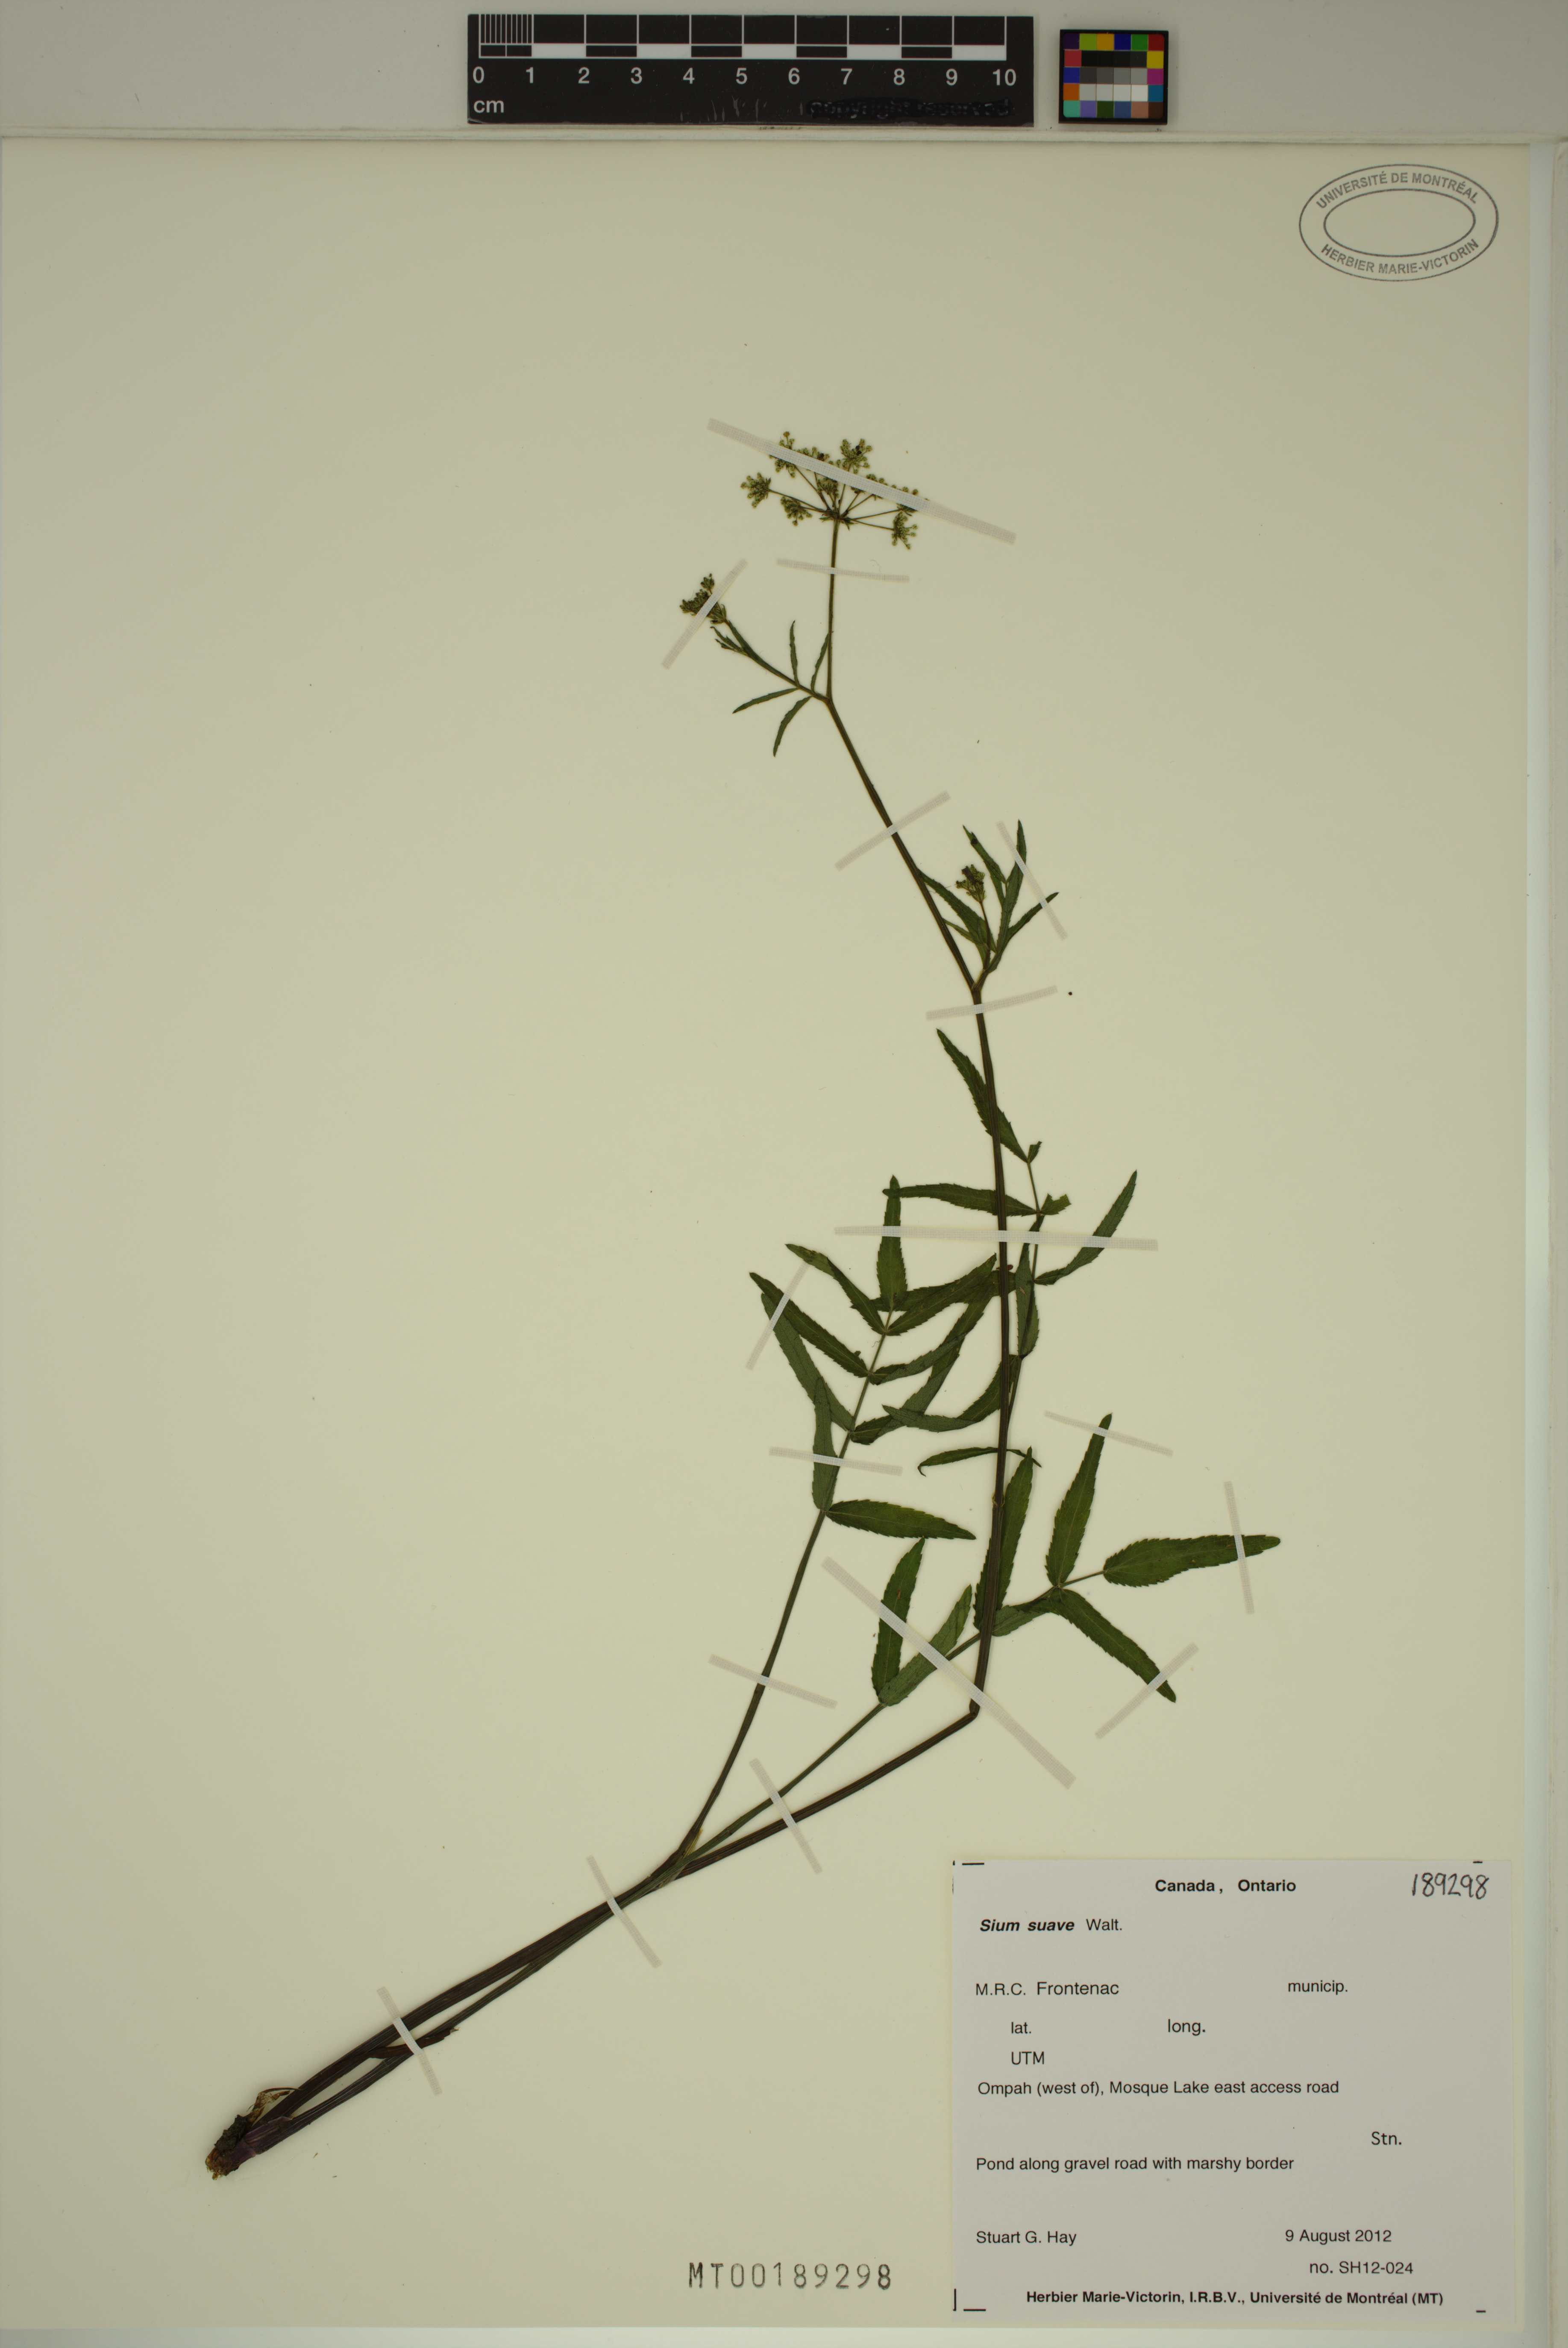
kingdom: Plantae
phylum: Tracheophyta
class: Magnoliopsida
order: Apiales
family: Apiaceae
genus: Sium
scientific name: Sium suave
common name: Hemlock water-parsnip
